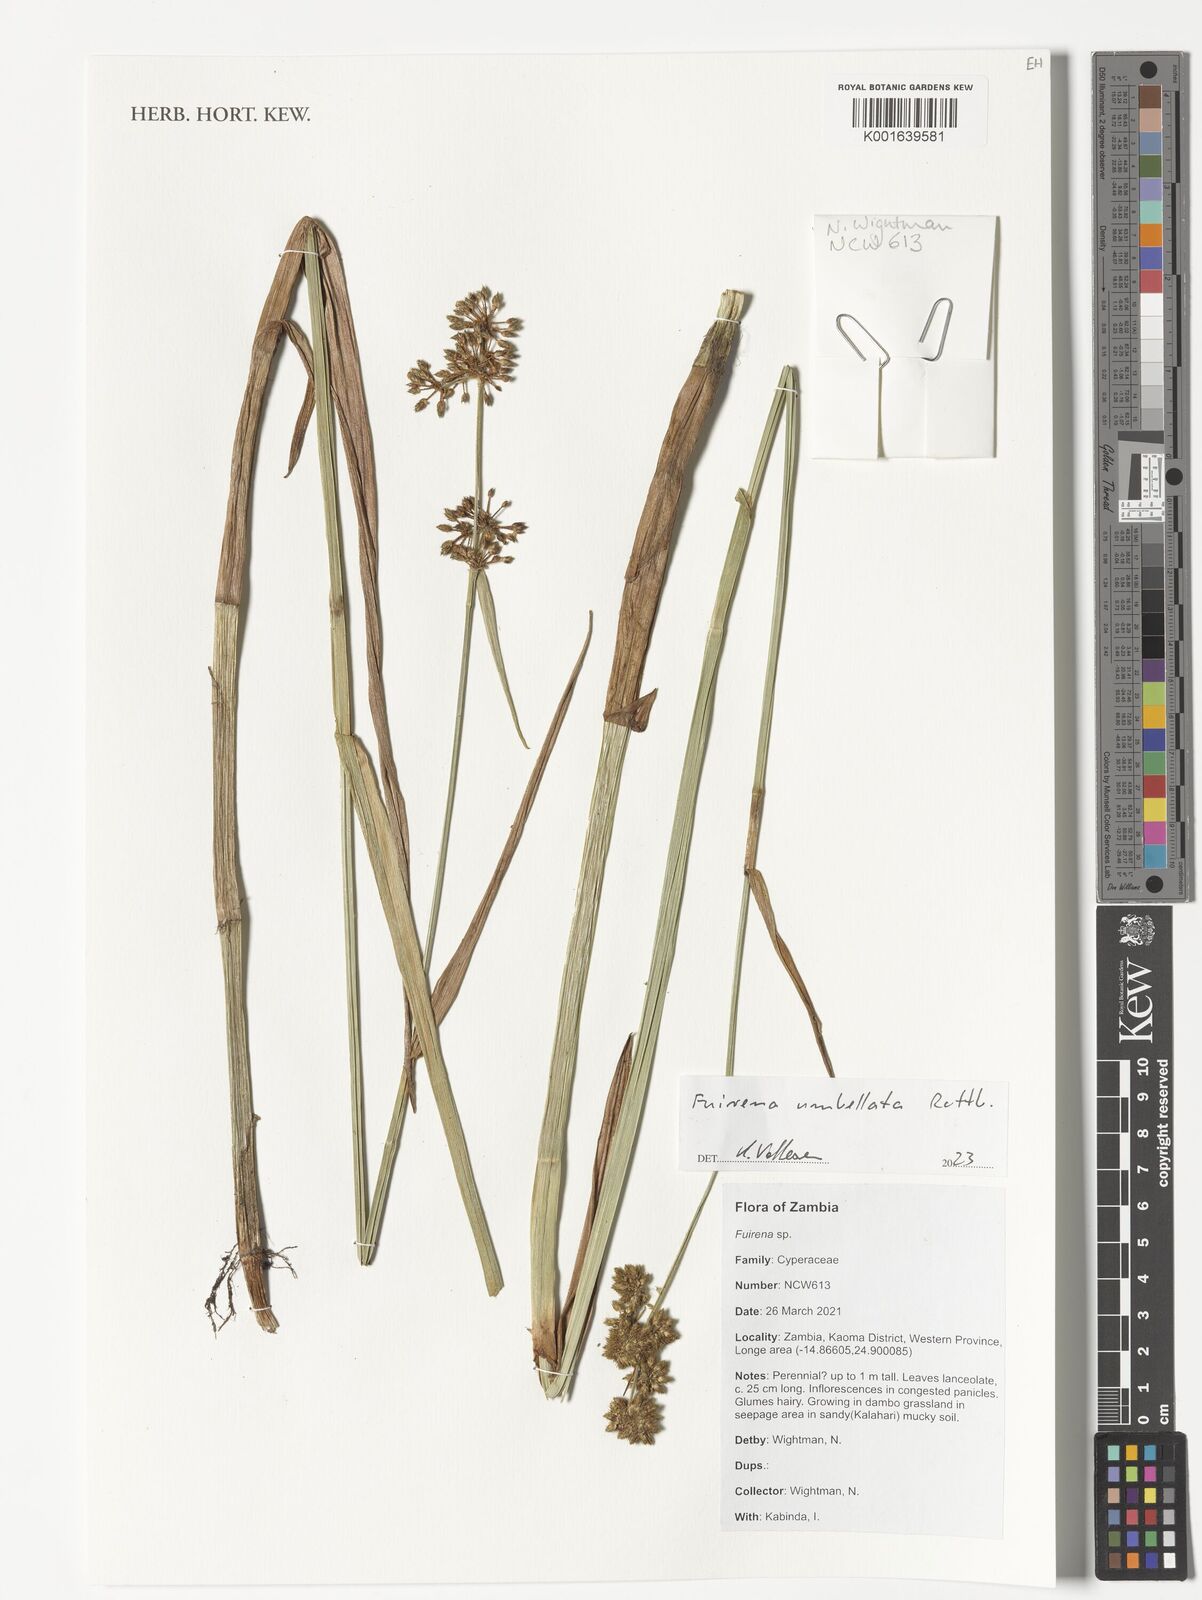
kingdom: Plantae
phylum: Tracheophyta
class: Liliopsida
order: Poales
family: Cyperaceae
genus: Fuirena
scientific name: Fuirena umbellata
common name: Yefen
